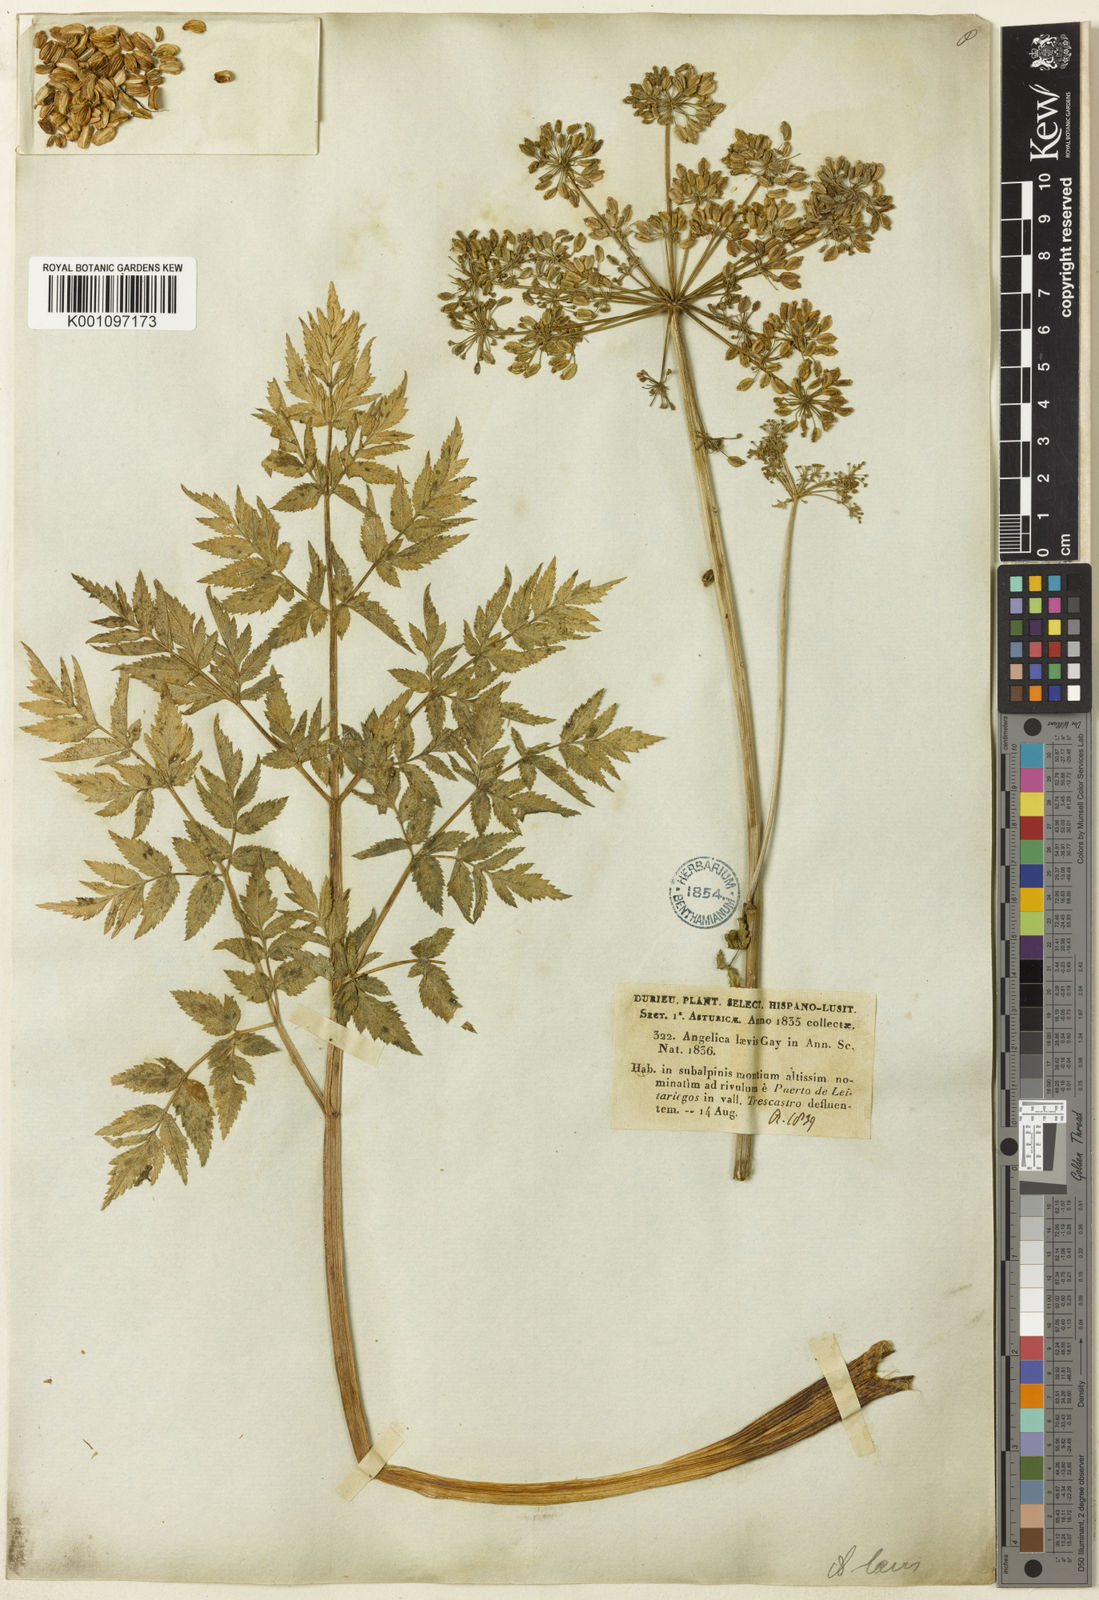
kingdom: Plantae
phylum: Tracheophyta
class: Magnoliopsida
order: Apiales
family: Apiaceae
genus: Angelica
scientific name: Angelica
